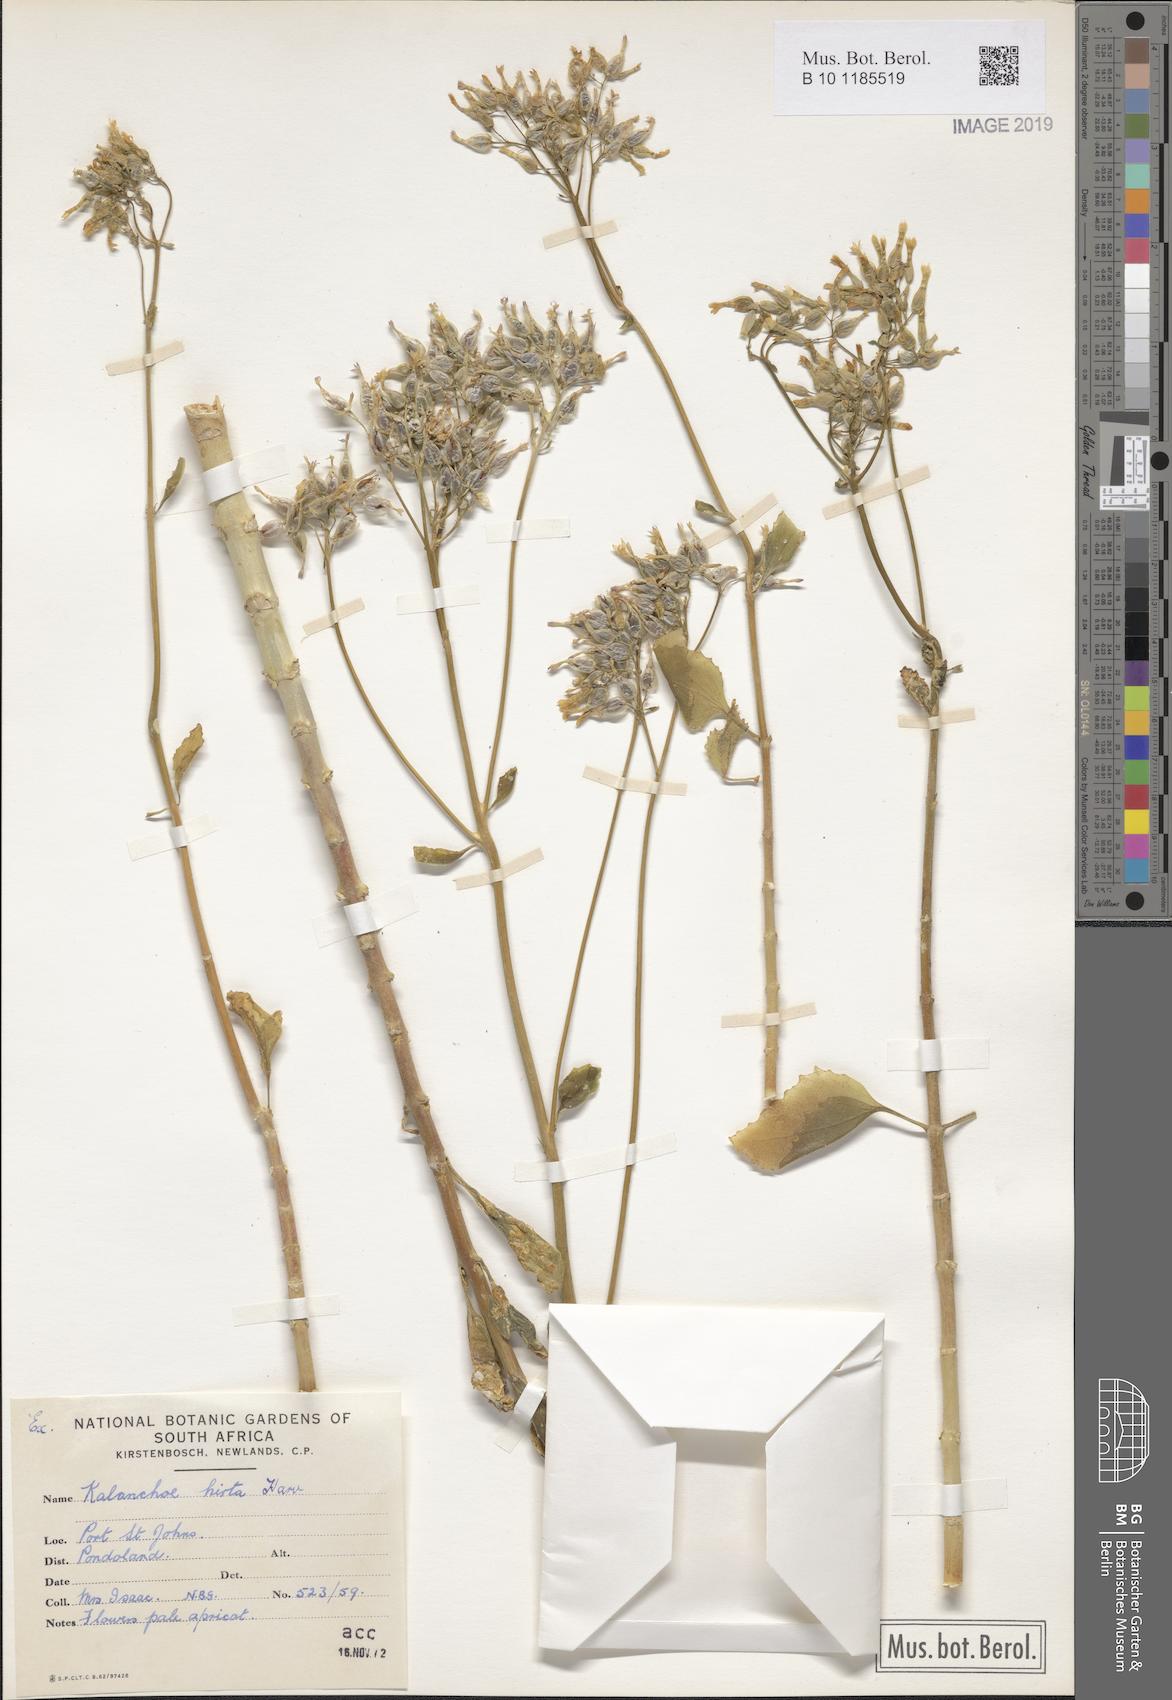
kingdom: Plantae
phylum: Tracheophyta
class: Magnoliopsida
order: Saxifragales
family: Crassulaceae
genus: Kalanchoe
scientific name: Kalanchoe crenata
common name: Neverdie
